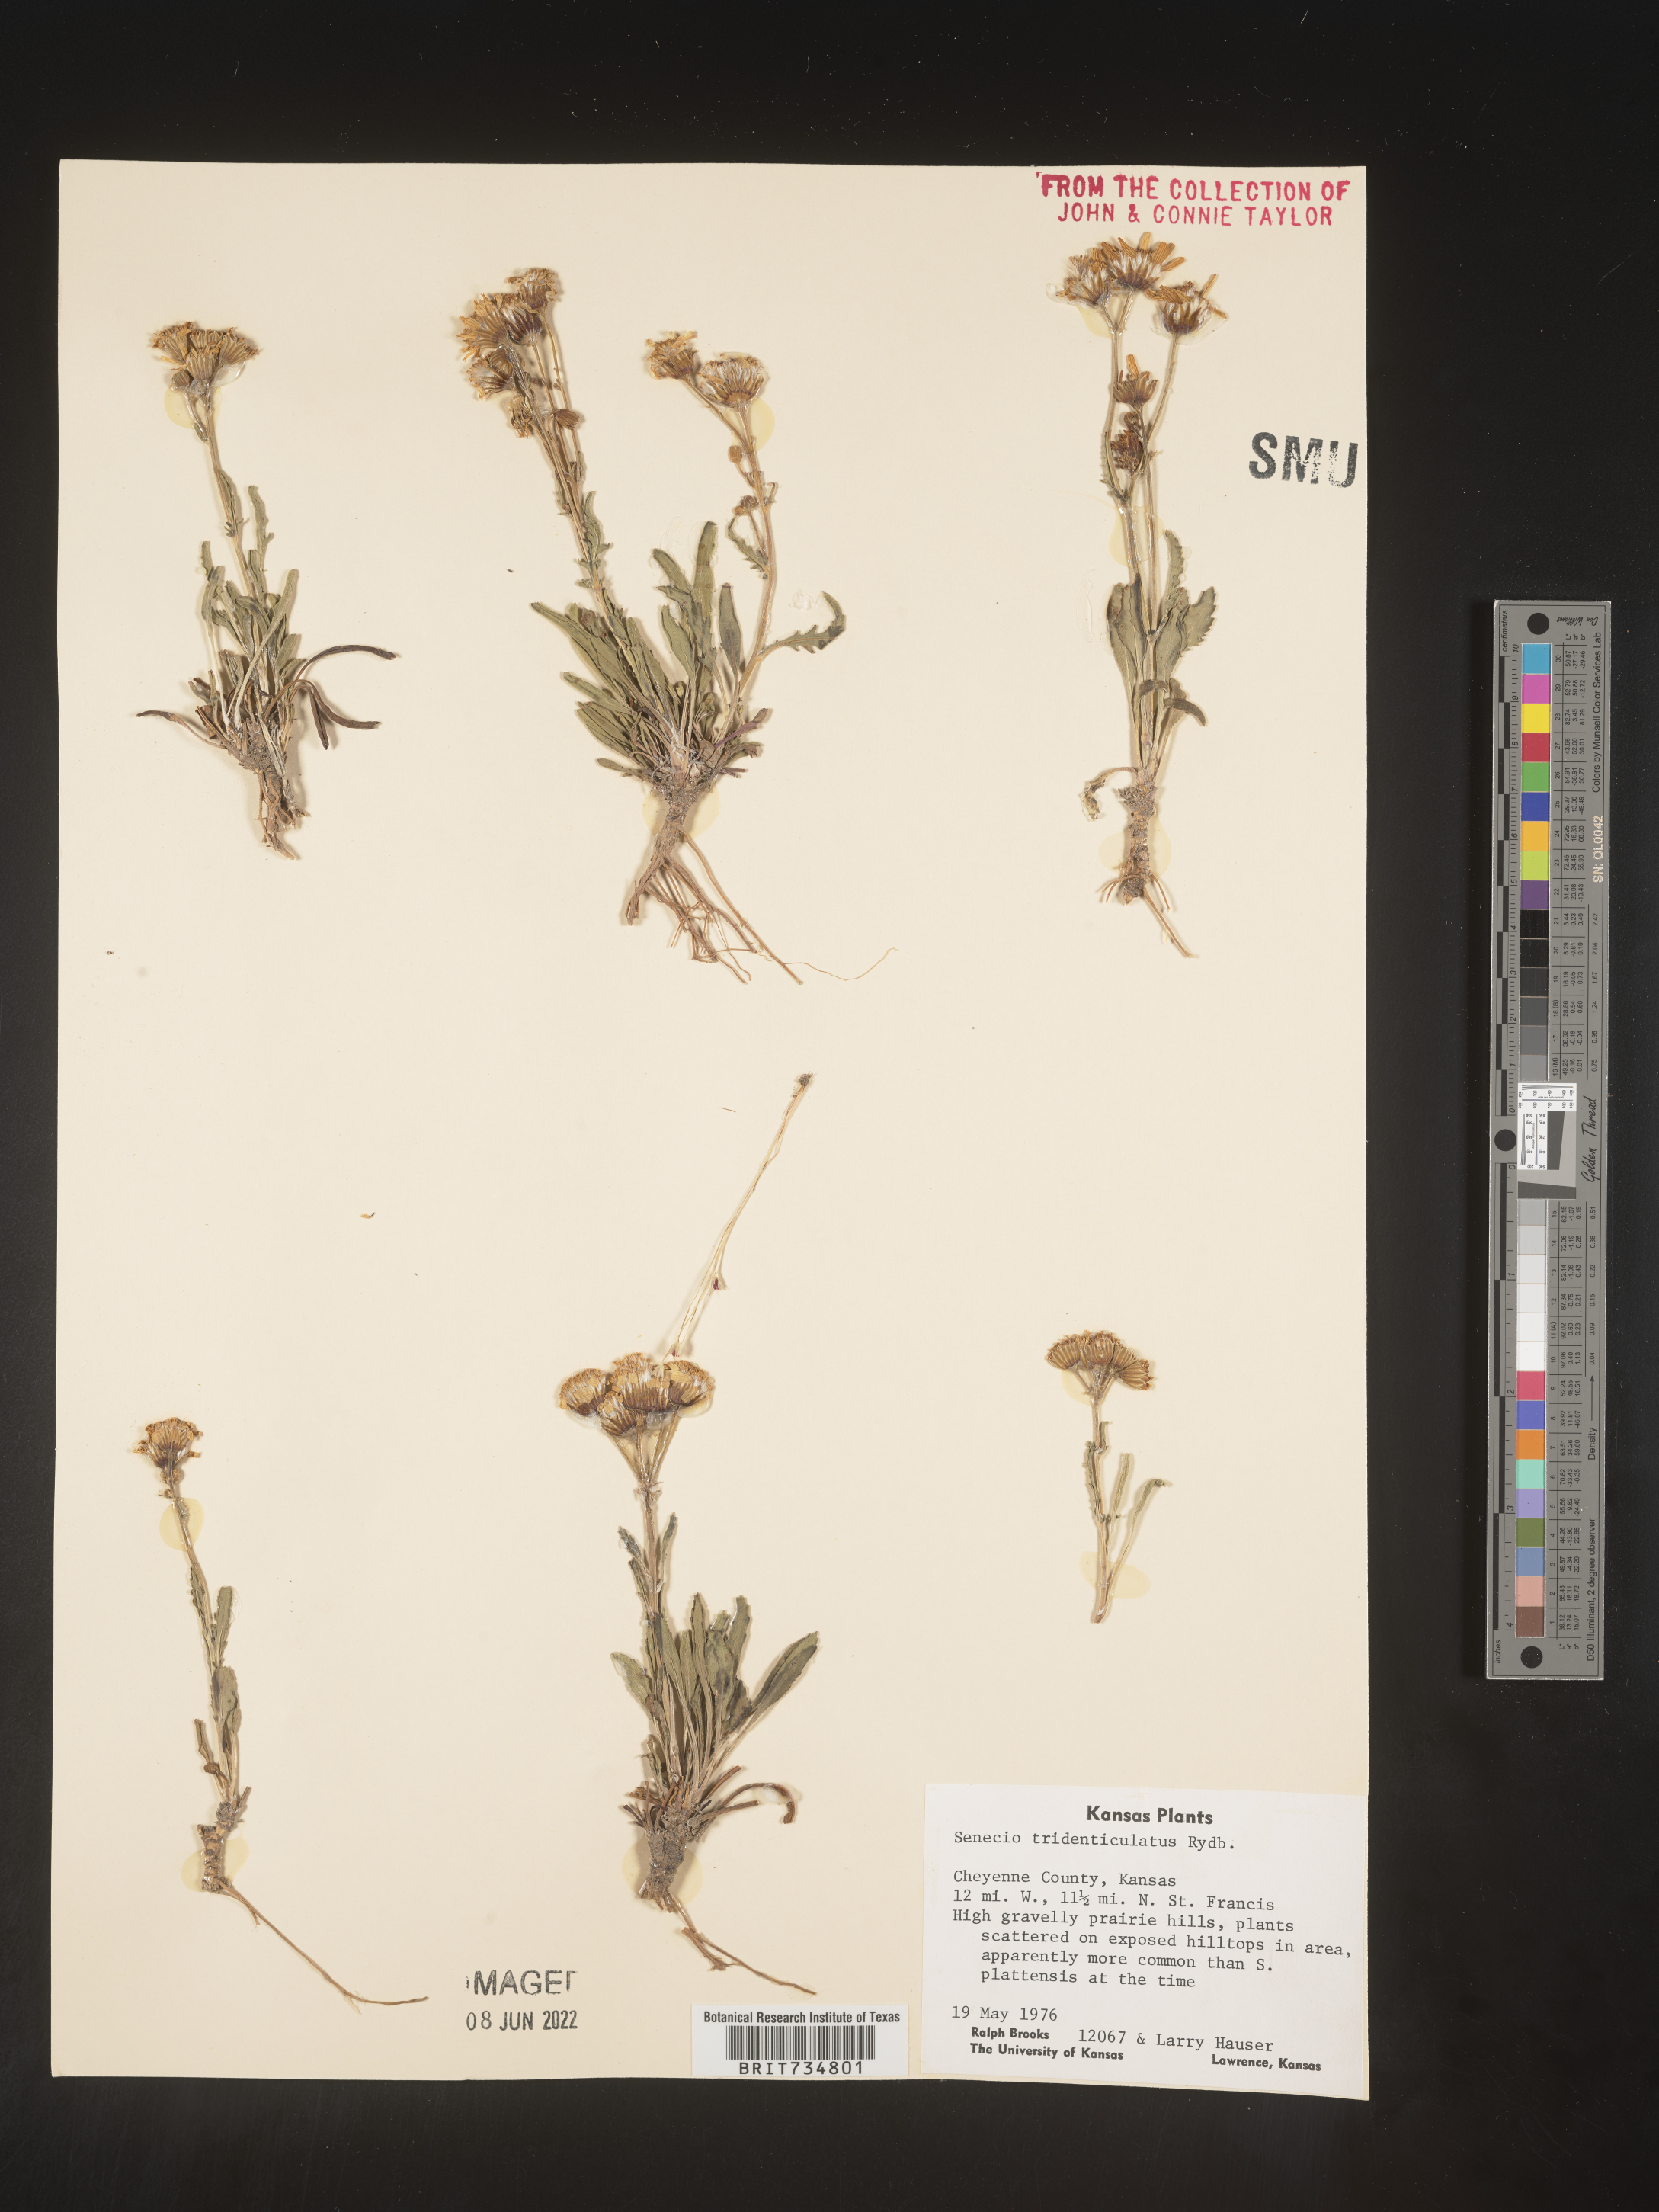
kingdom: Plantae
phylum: Tracheophyta
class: Magnoliopsida
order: Asterales
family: Asteraceae
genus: Packera
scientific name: Packera thurberi
